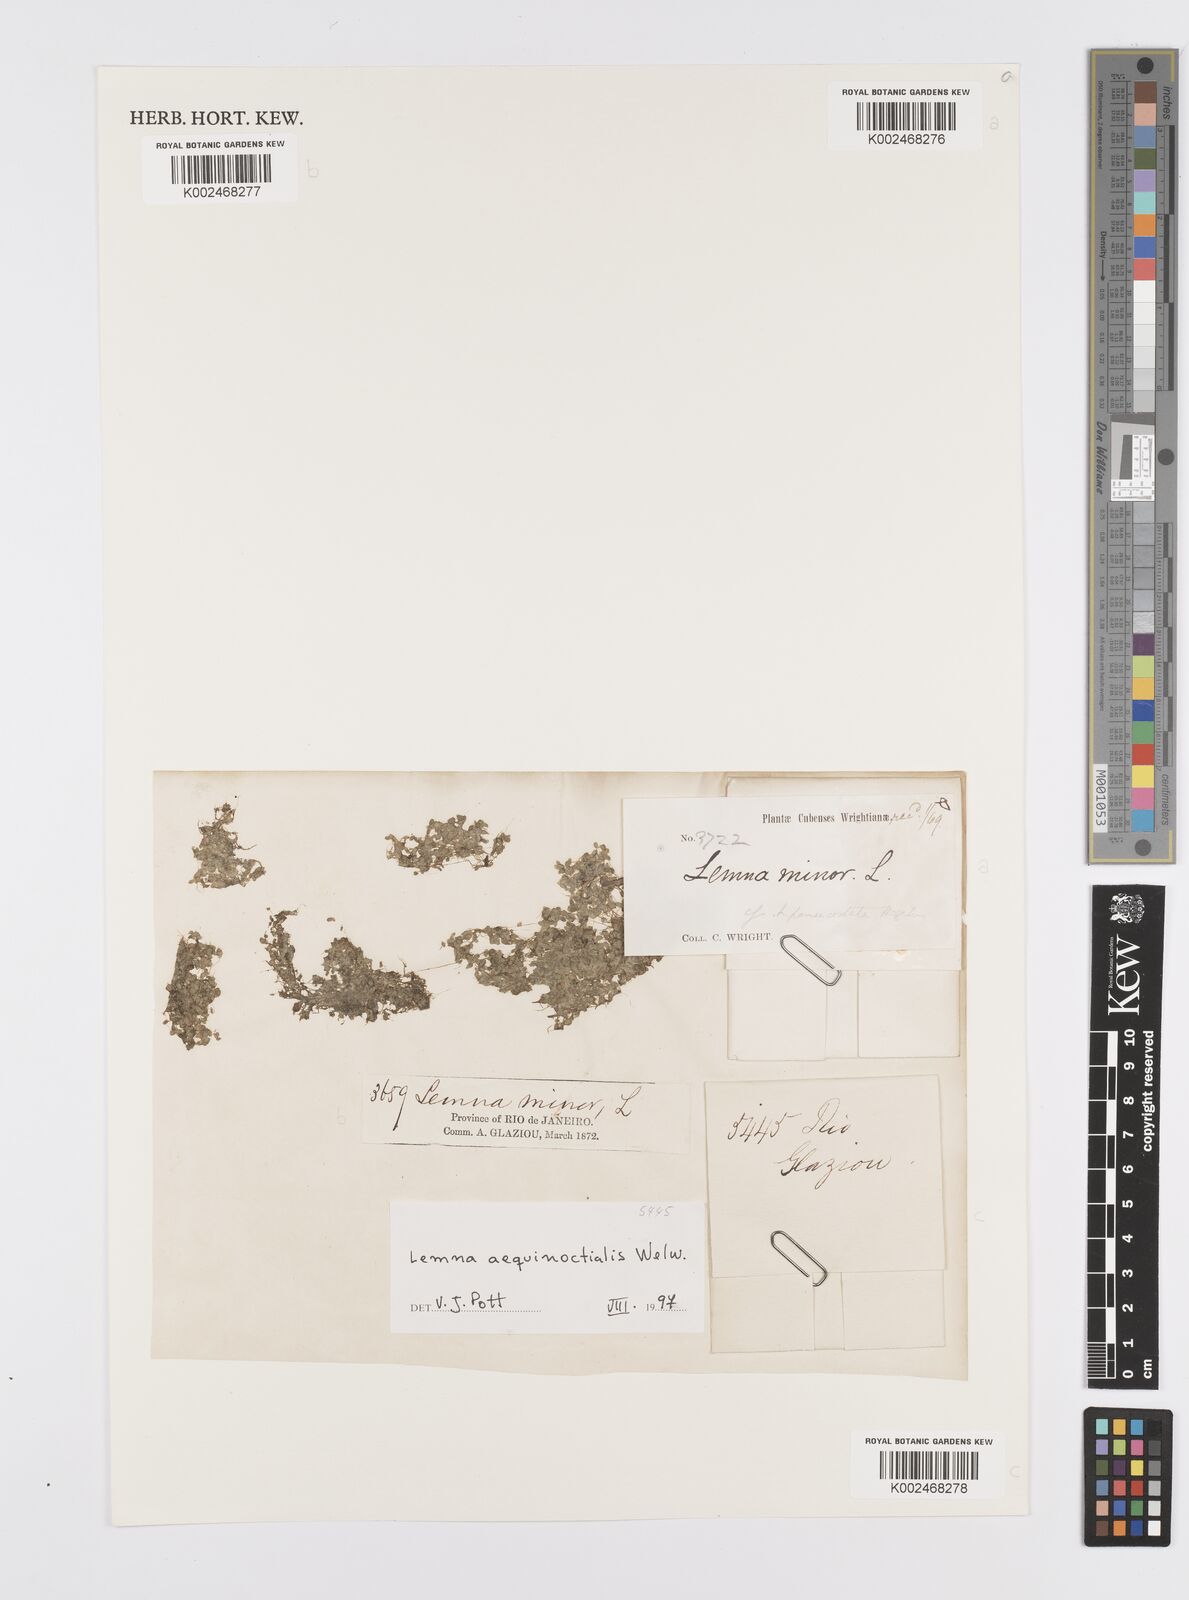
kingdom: Plantae
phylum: Tracheophyta
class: Liliopsida
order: Alismatales
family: Araceae
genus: Lemna
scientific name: Lemna aequinoctialis
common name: Duckweed
